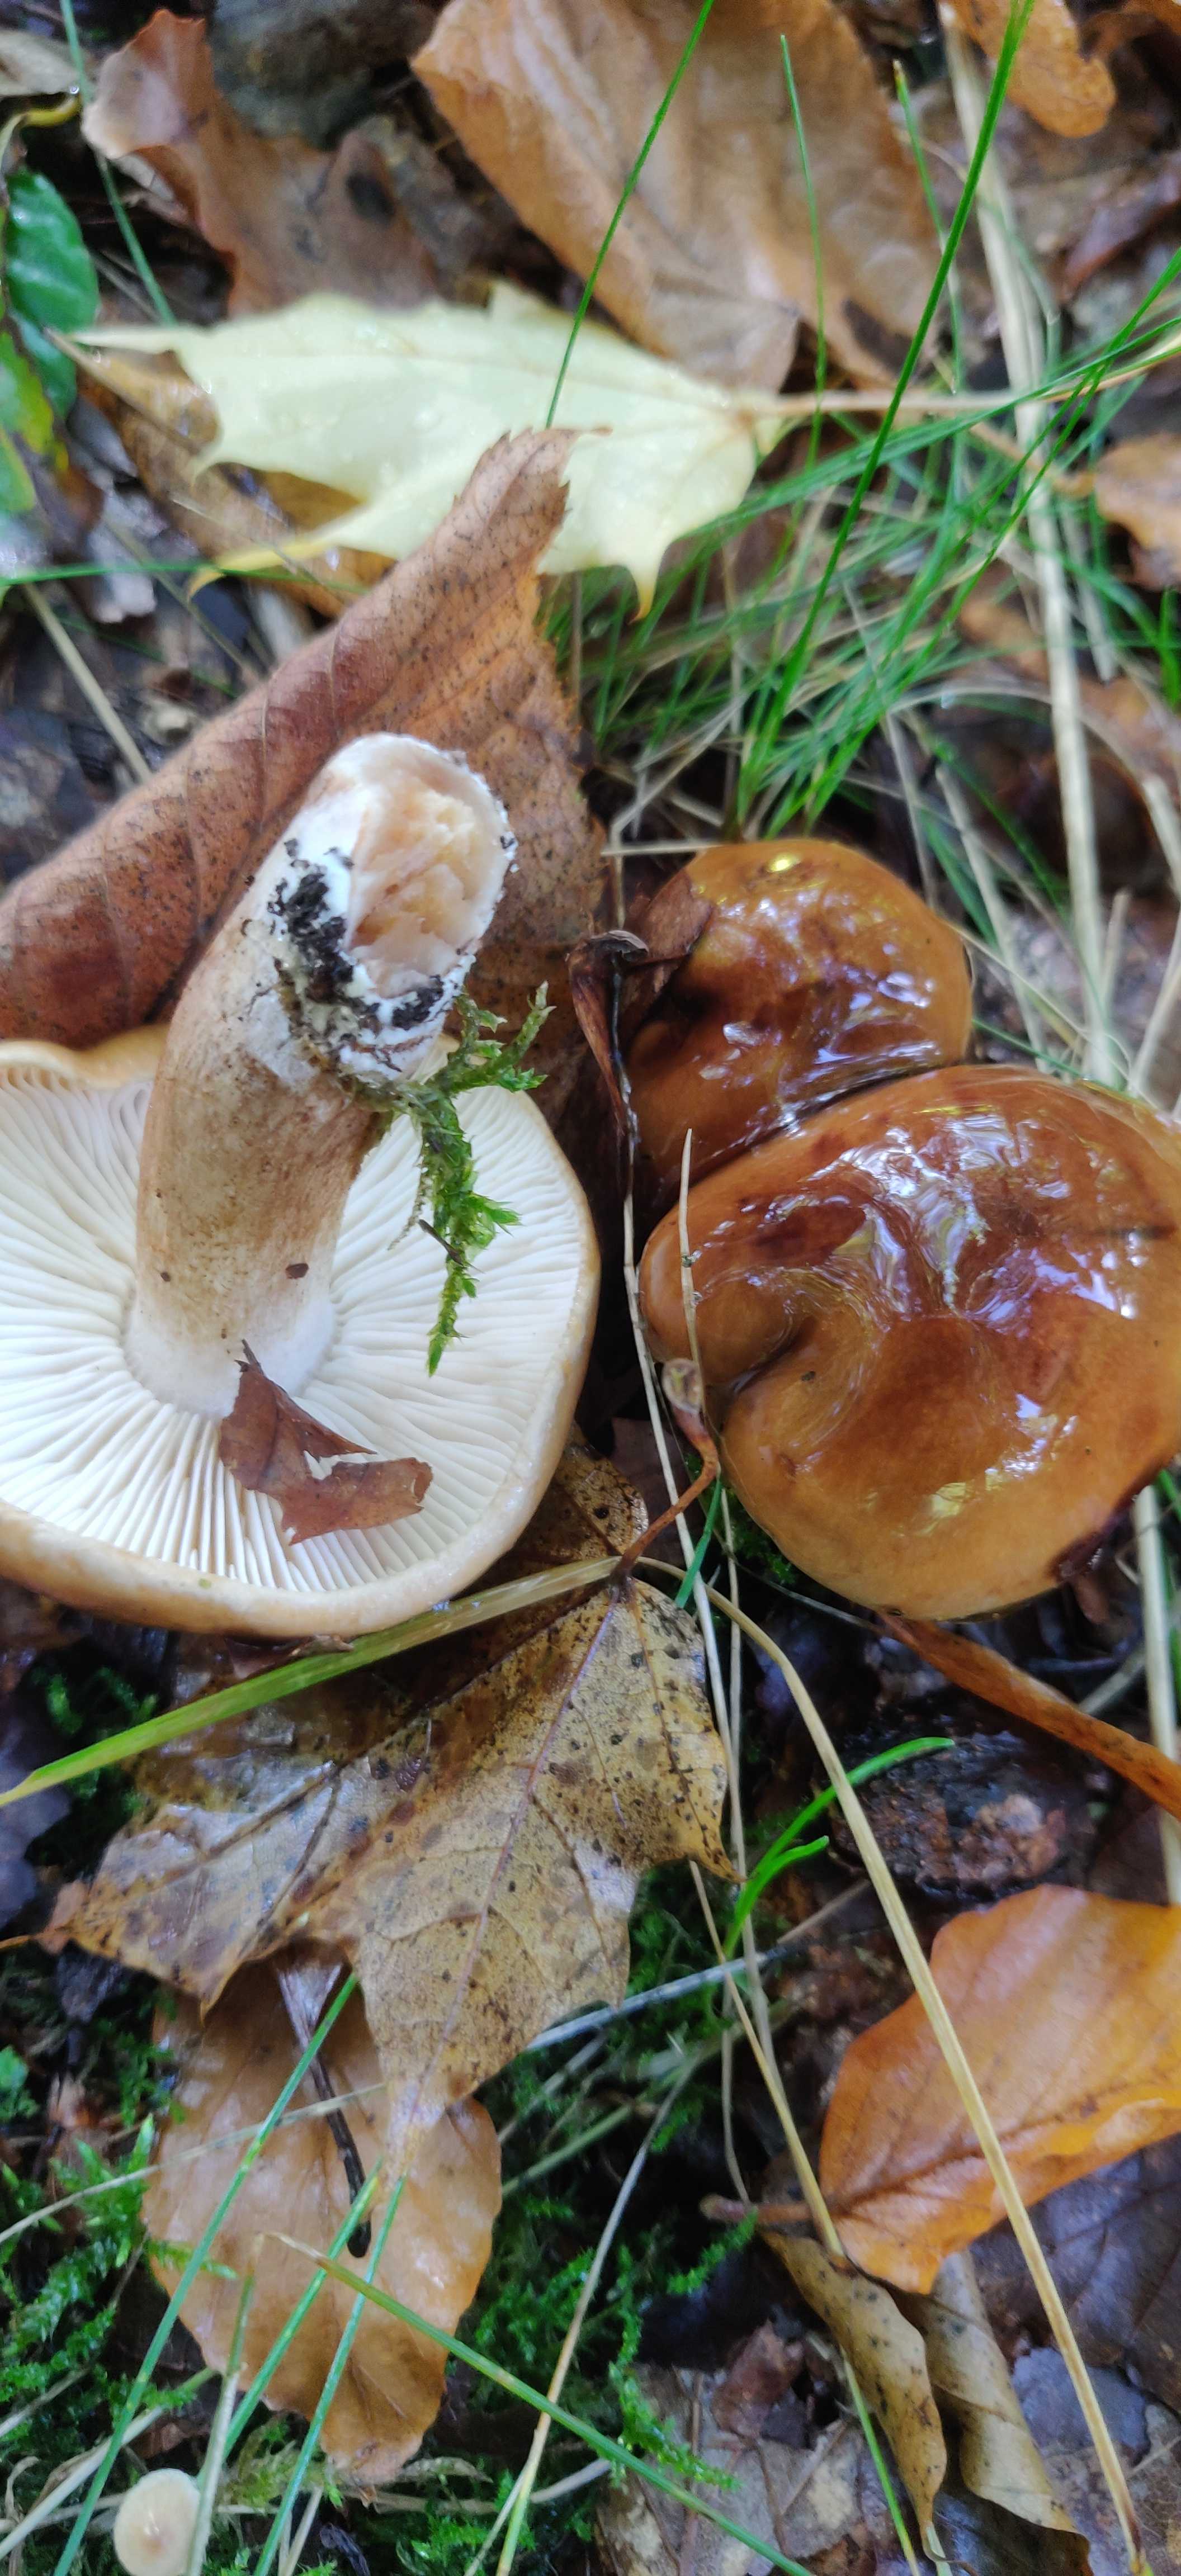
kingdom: Fungi
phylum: Basidiomycota
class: Agaricomycetes
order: Agaricales
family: Tricholomataceae
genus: Tricholoma
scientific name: Tricholoma ustale
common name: sveden ridderhat
